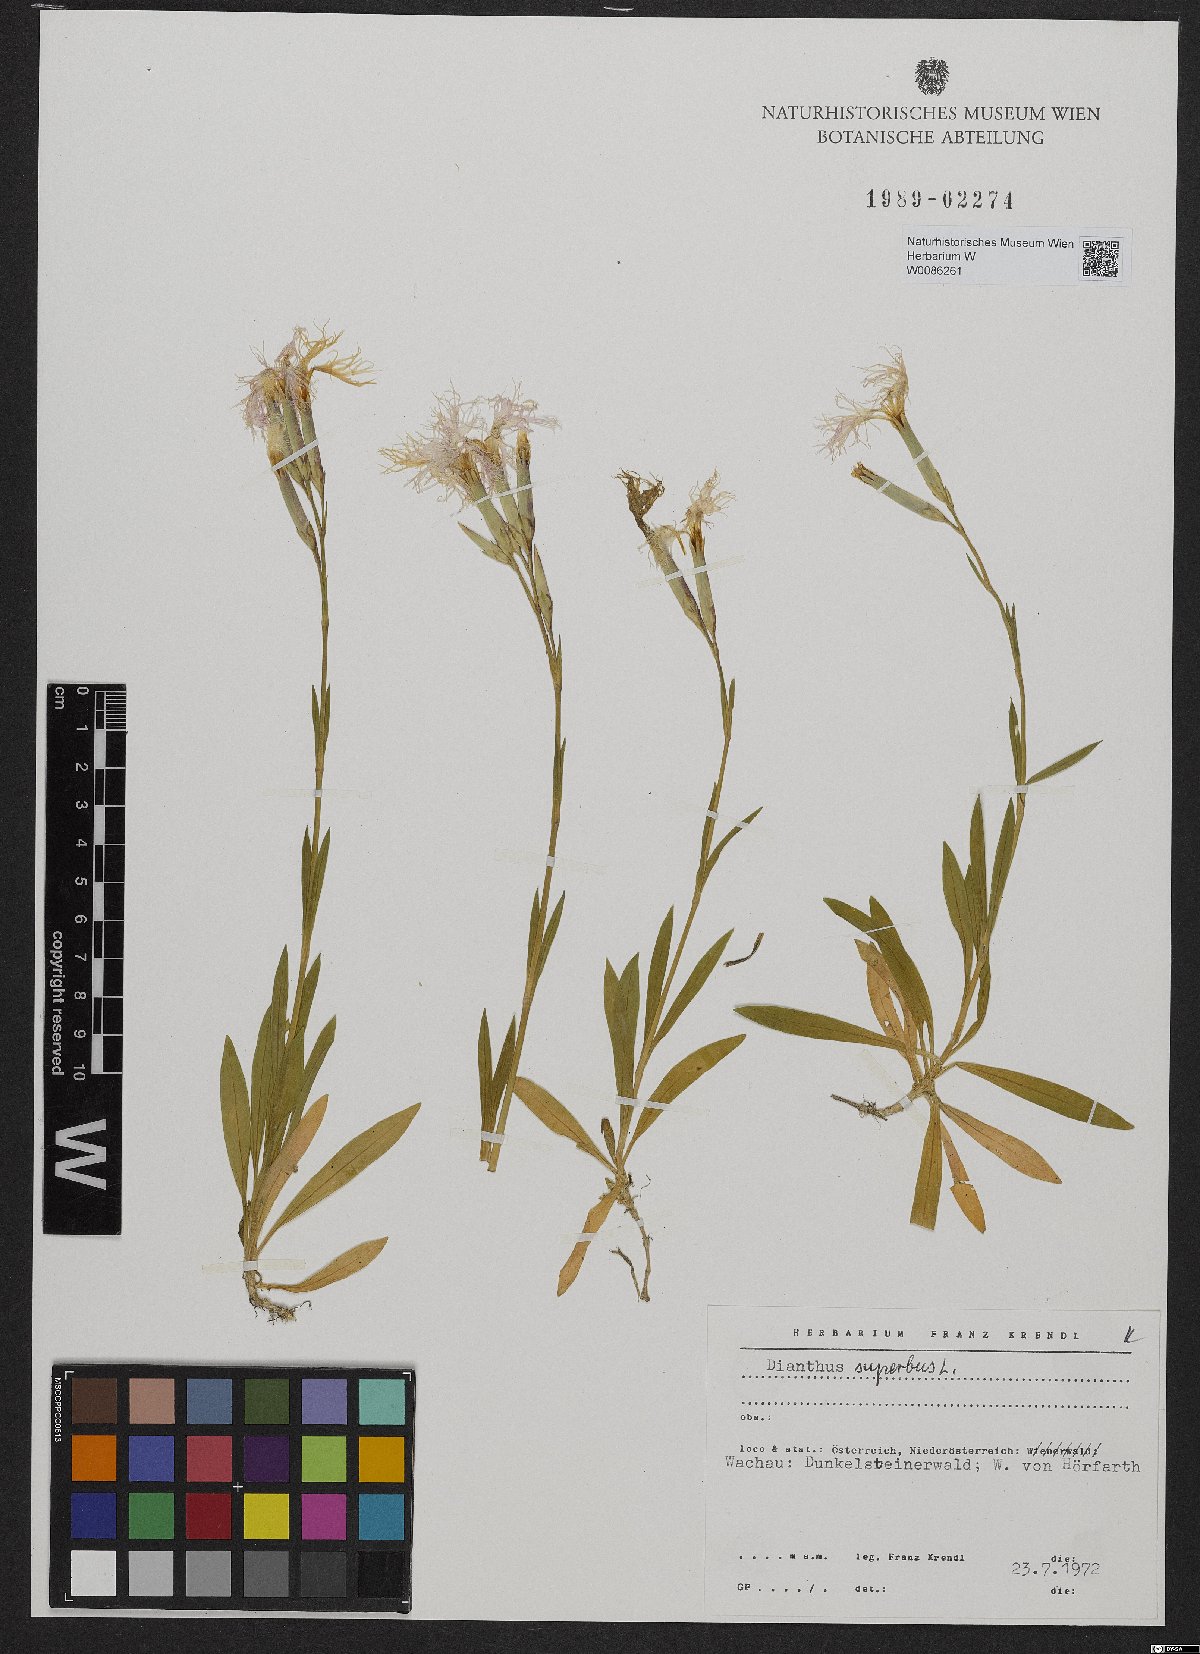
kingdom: Plantae
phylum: Tracheophyta
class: Magnoliopsida
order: Caryophyllales
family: Caryophyllaceae
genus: Dianthus
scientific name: Dianthus superbus
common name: Fringed pink
